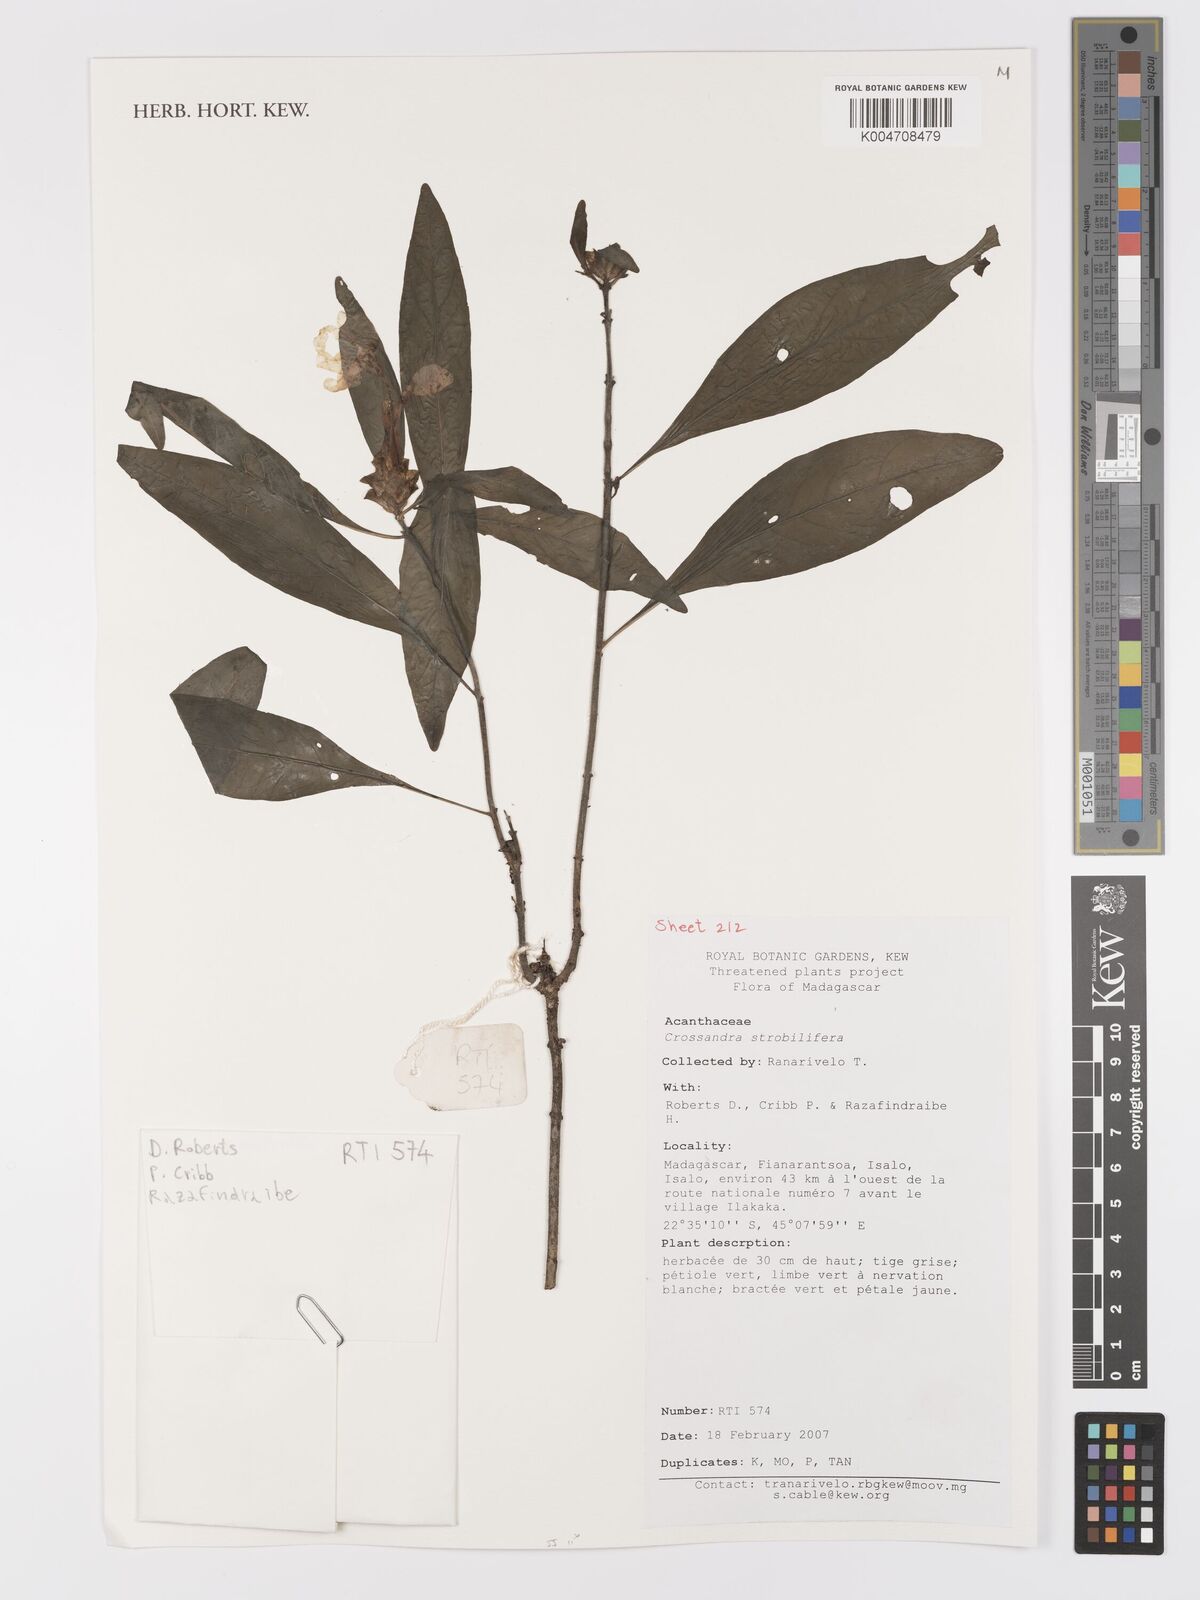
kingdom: Plantae
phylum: Tracheophyta
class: Magnoliopsida
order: Lamiales
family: Acanthaceae
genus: Crossandra
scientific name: Crossandra strobilifera
